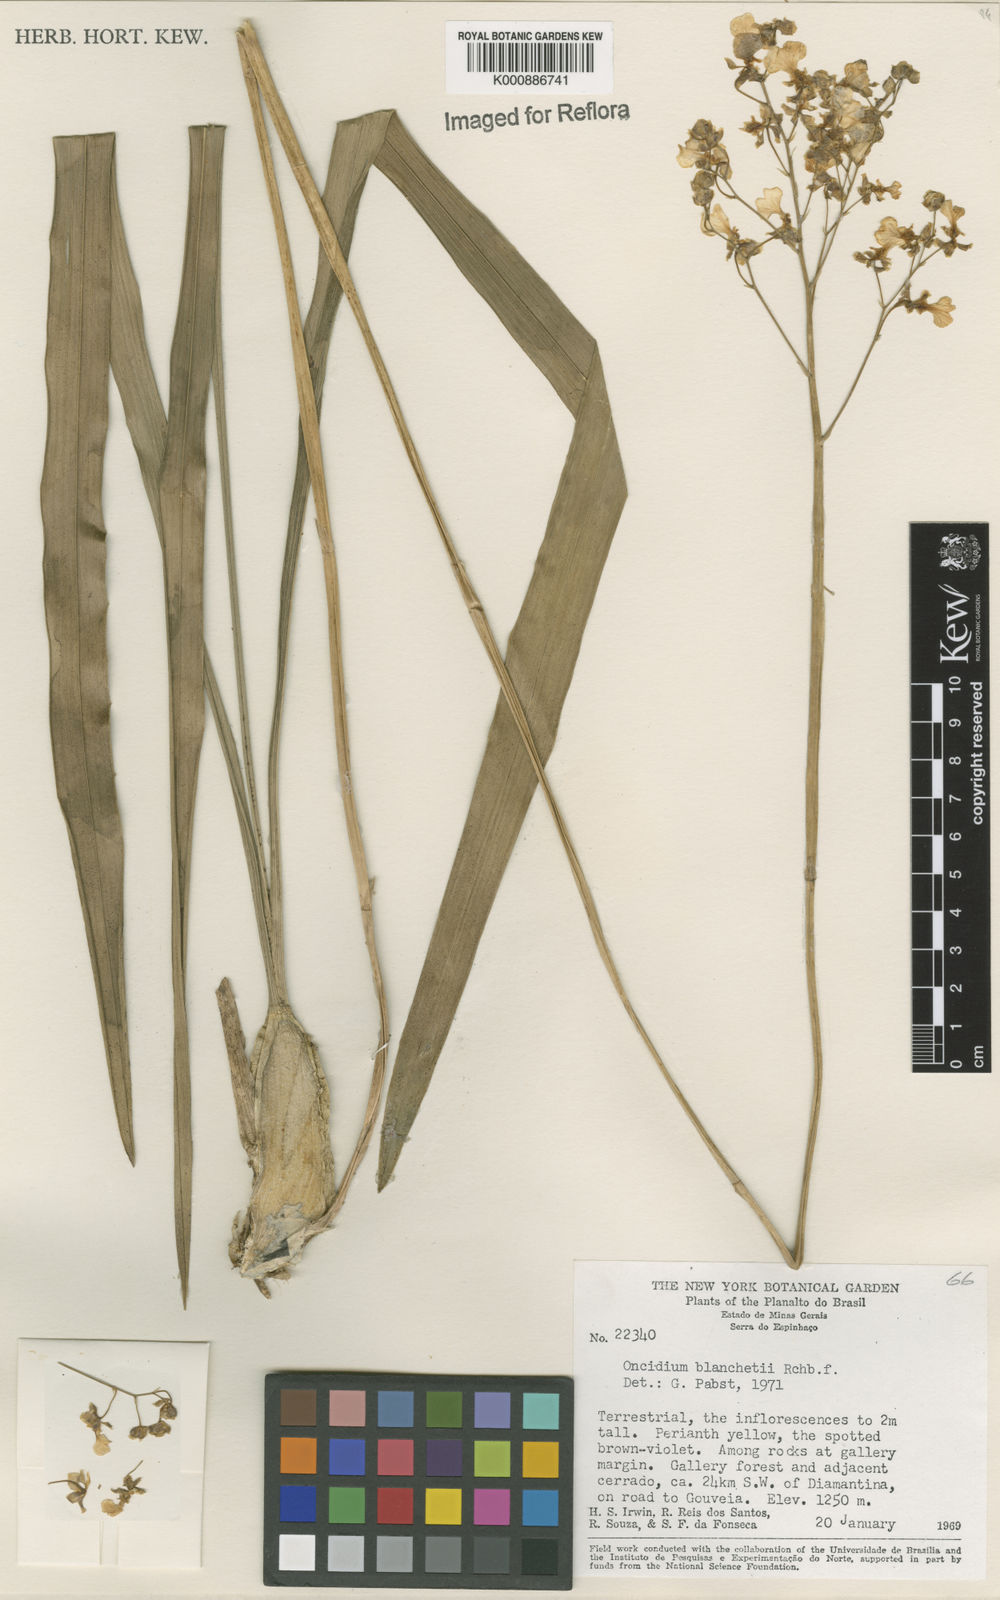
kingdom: Plantae
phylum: Tracheophyta
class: Liliopsida
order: Asparagales
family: Orchidaceae
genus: Gomesa
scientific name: Gomesa ramosa
